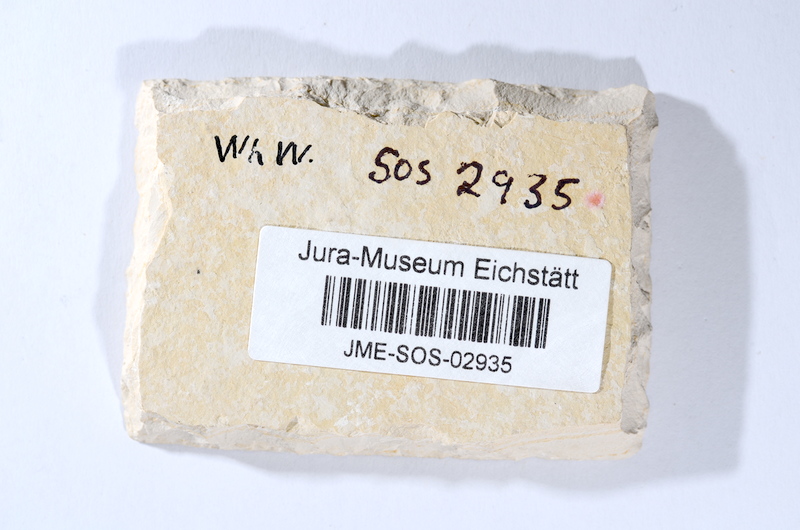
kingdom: Animalia
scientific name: Animalia
